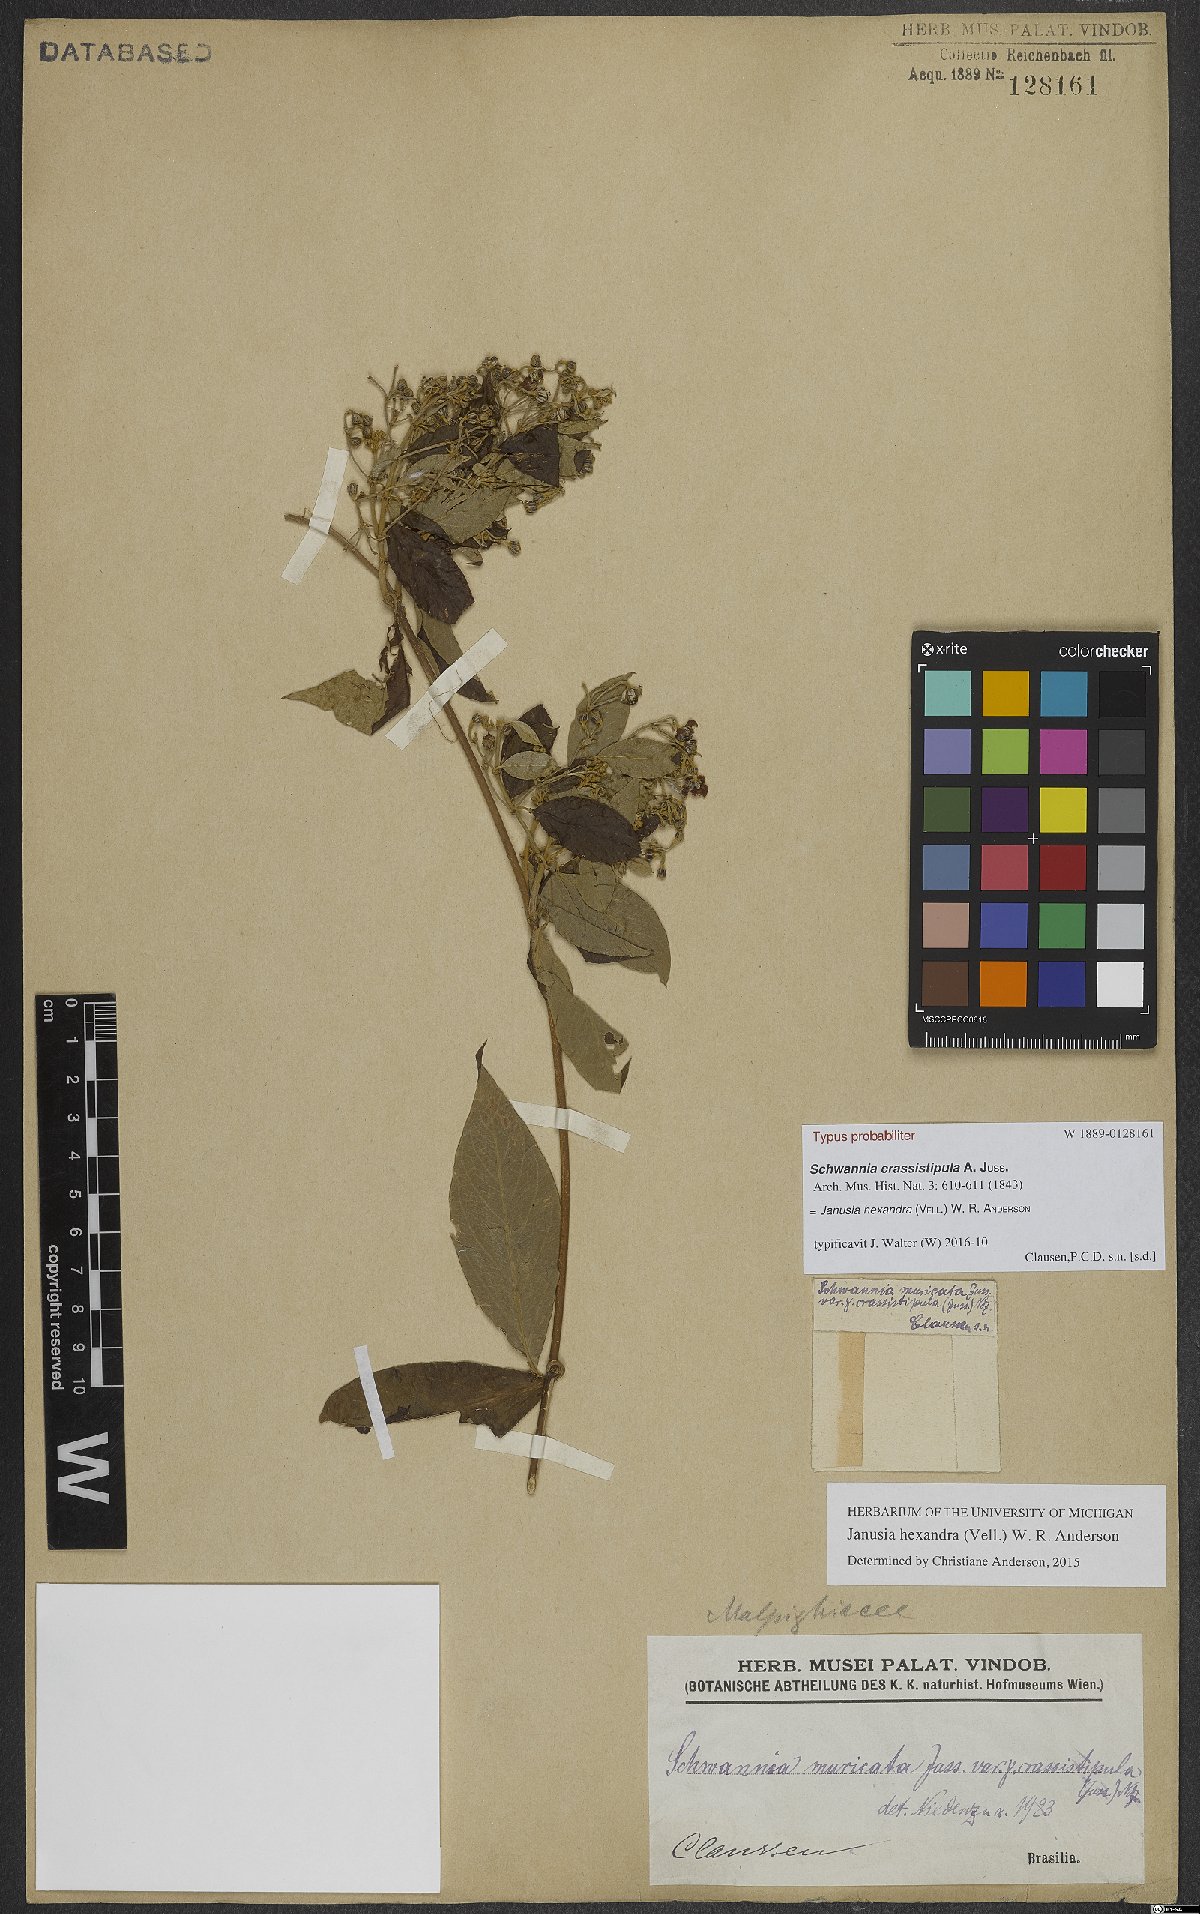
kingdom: Plantae
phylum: Tracheophyta
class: Magnoliopsida
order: Malpighiales
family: Malpighiaceae
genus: Janusia
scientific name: Janusia hexandra
